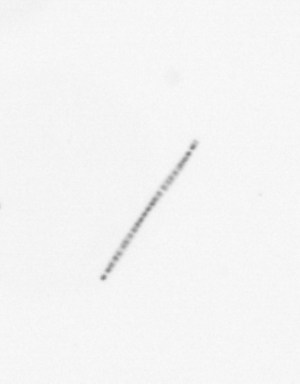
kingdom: Chromista
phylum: Ochrophyta
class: Bacillariophyceae
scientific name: Bacillariophyceae
